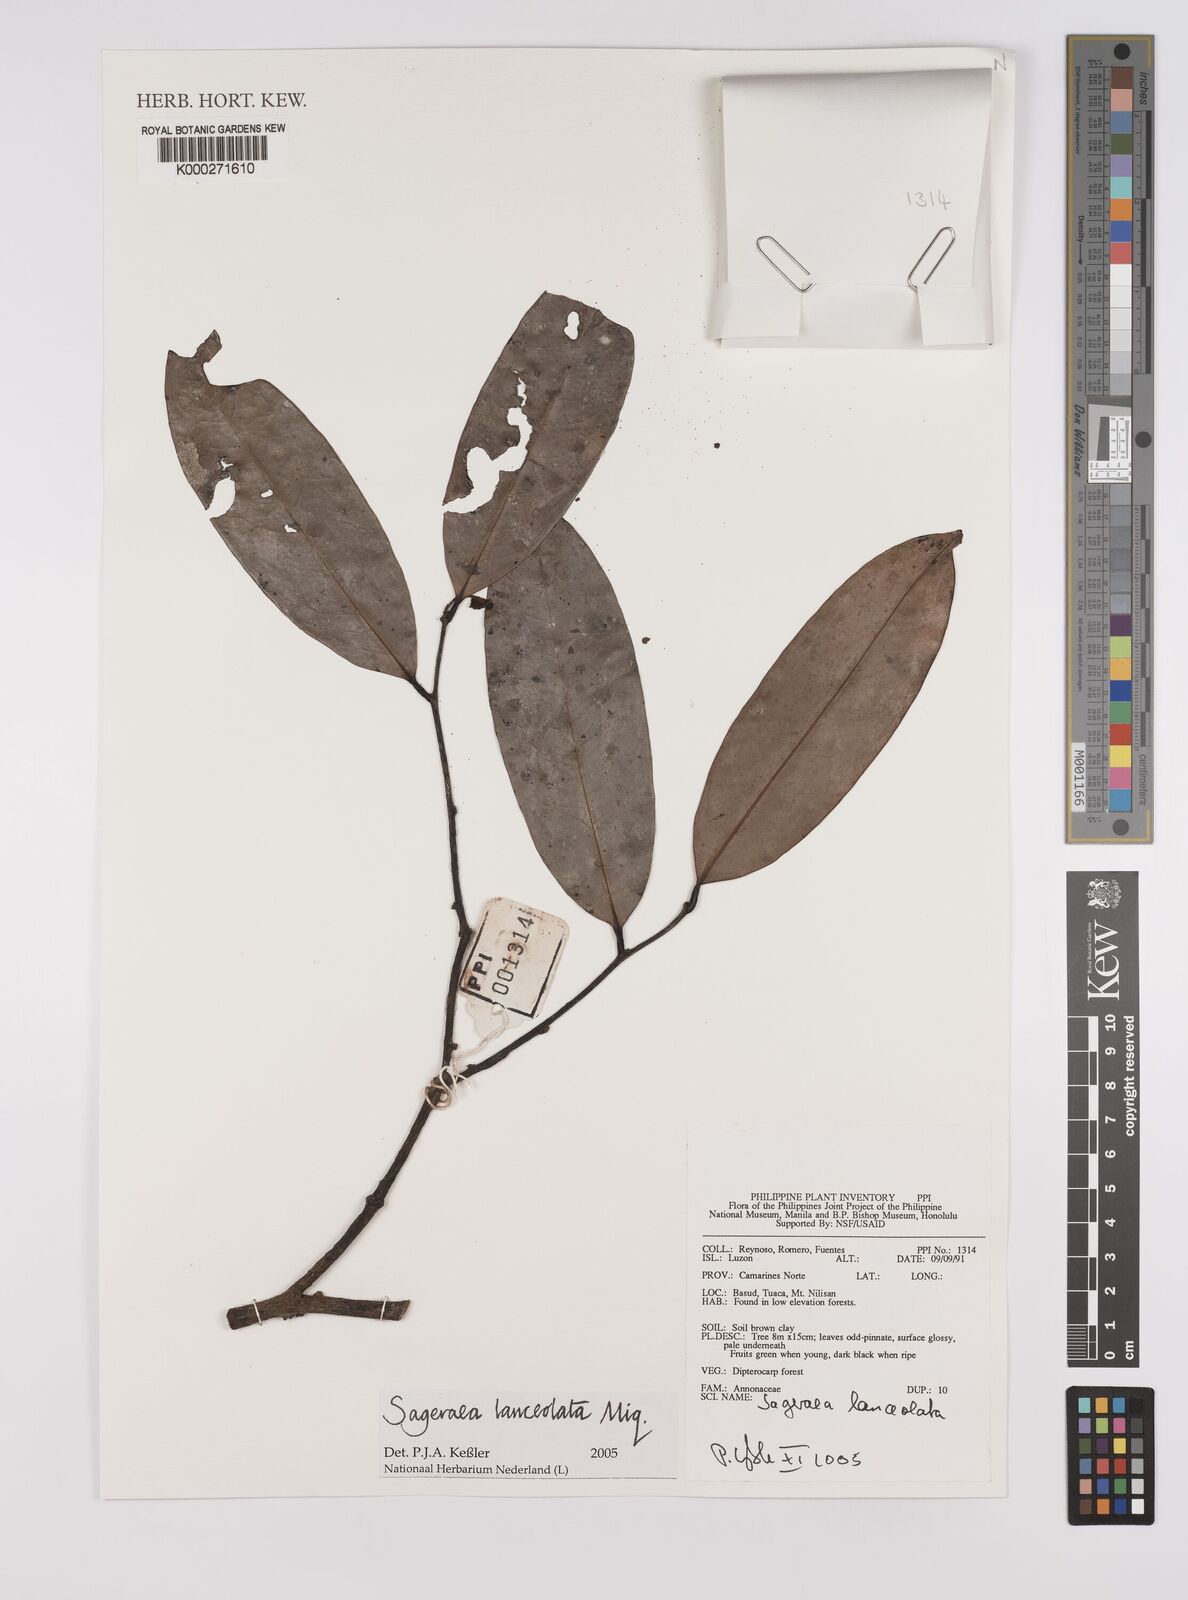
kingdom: Plantae
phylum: Tracheophyta
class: Magnoliopsida
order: Magnoliales
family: Annonaceae
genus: Sageraea
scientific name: Sageraea lanceolata
